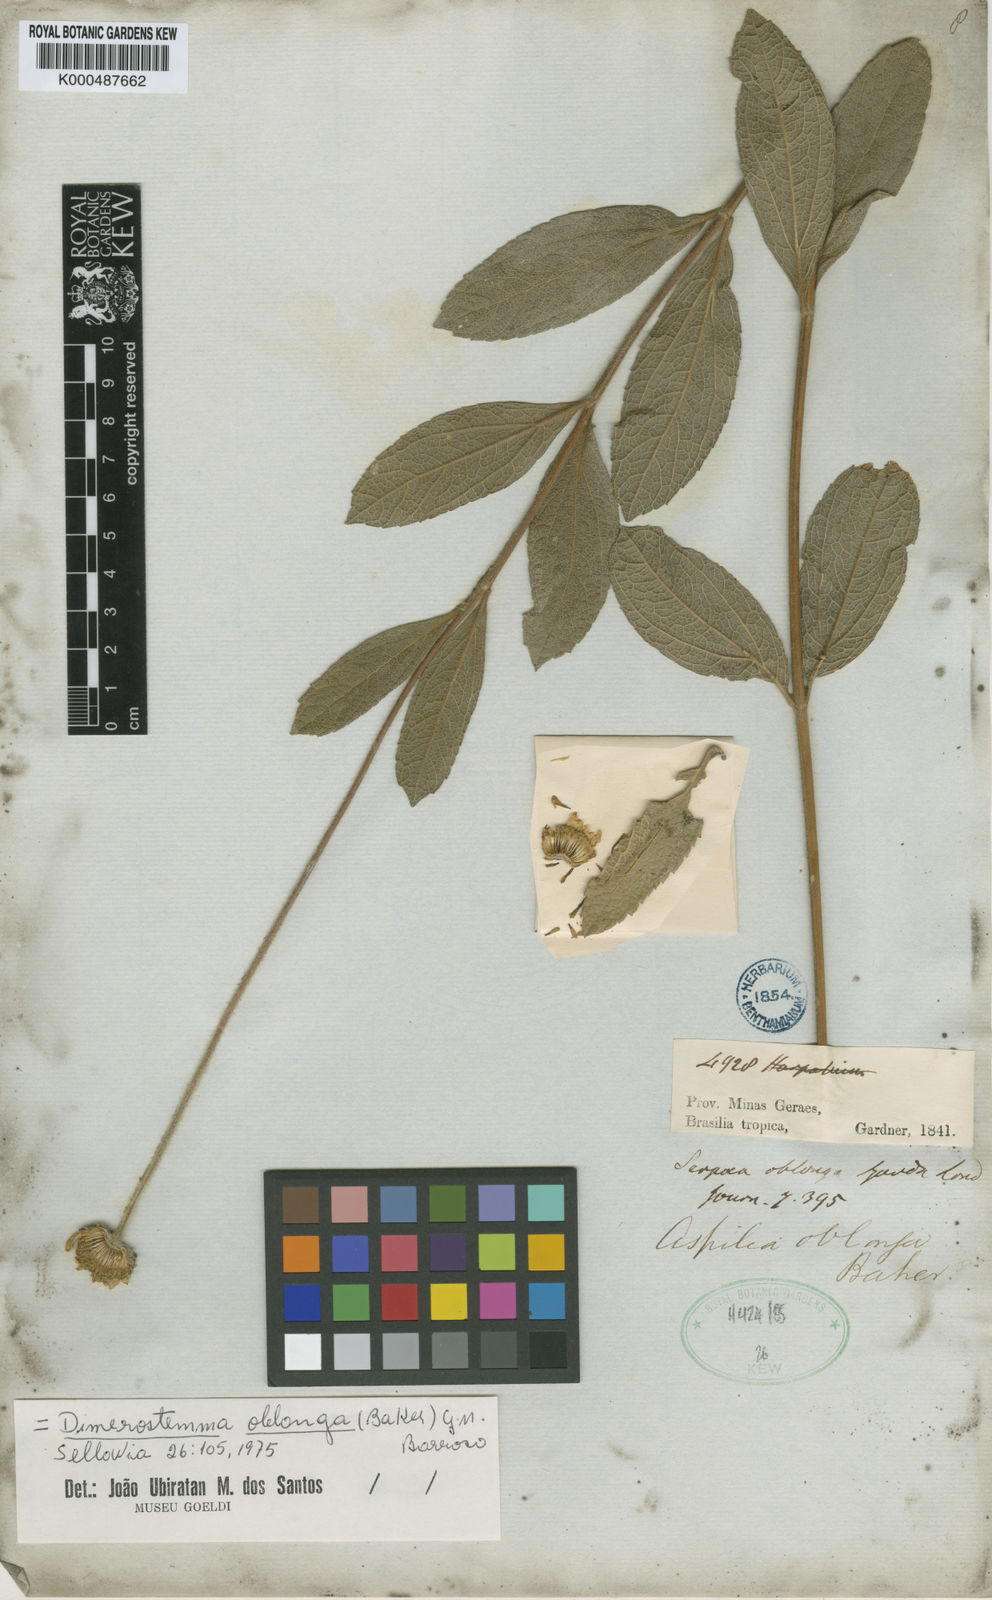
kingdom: Plantae
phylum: Tracheophyta
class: Magnoliopsida
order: Asterales
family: Asteraceae
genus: Dimerostemma
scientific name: Dimerostemma oblongum
